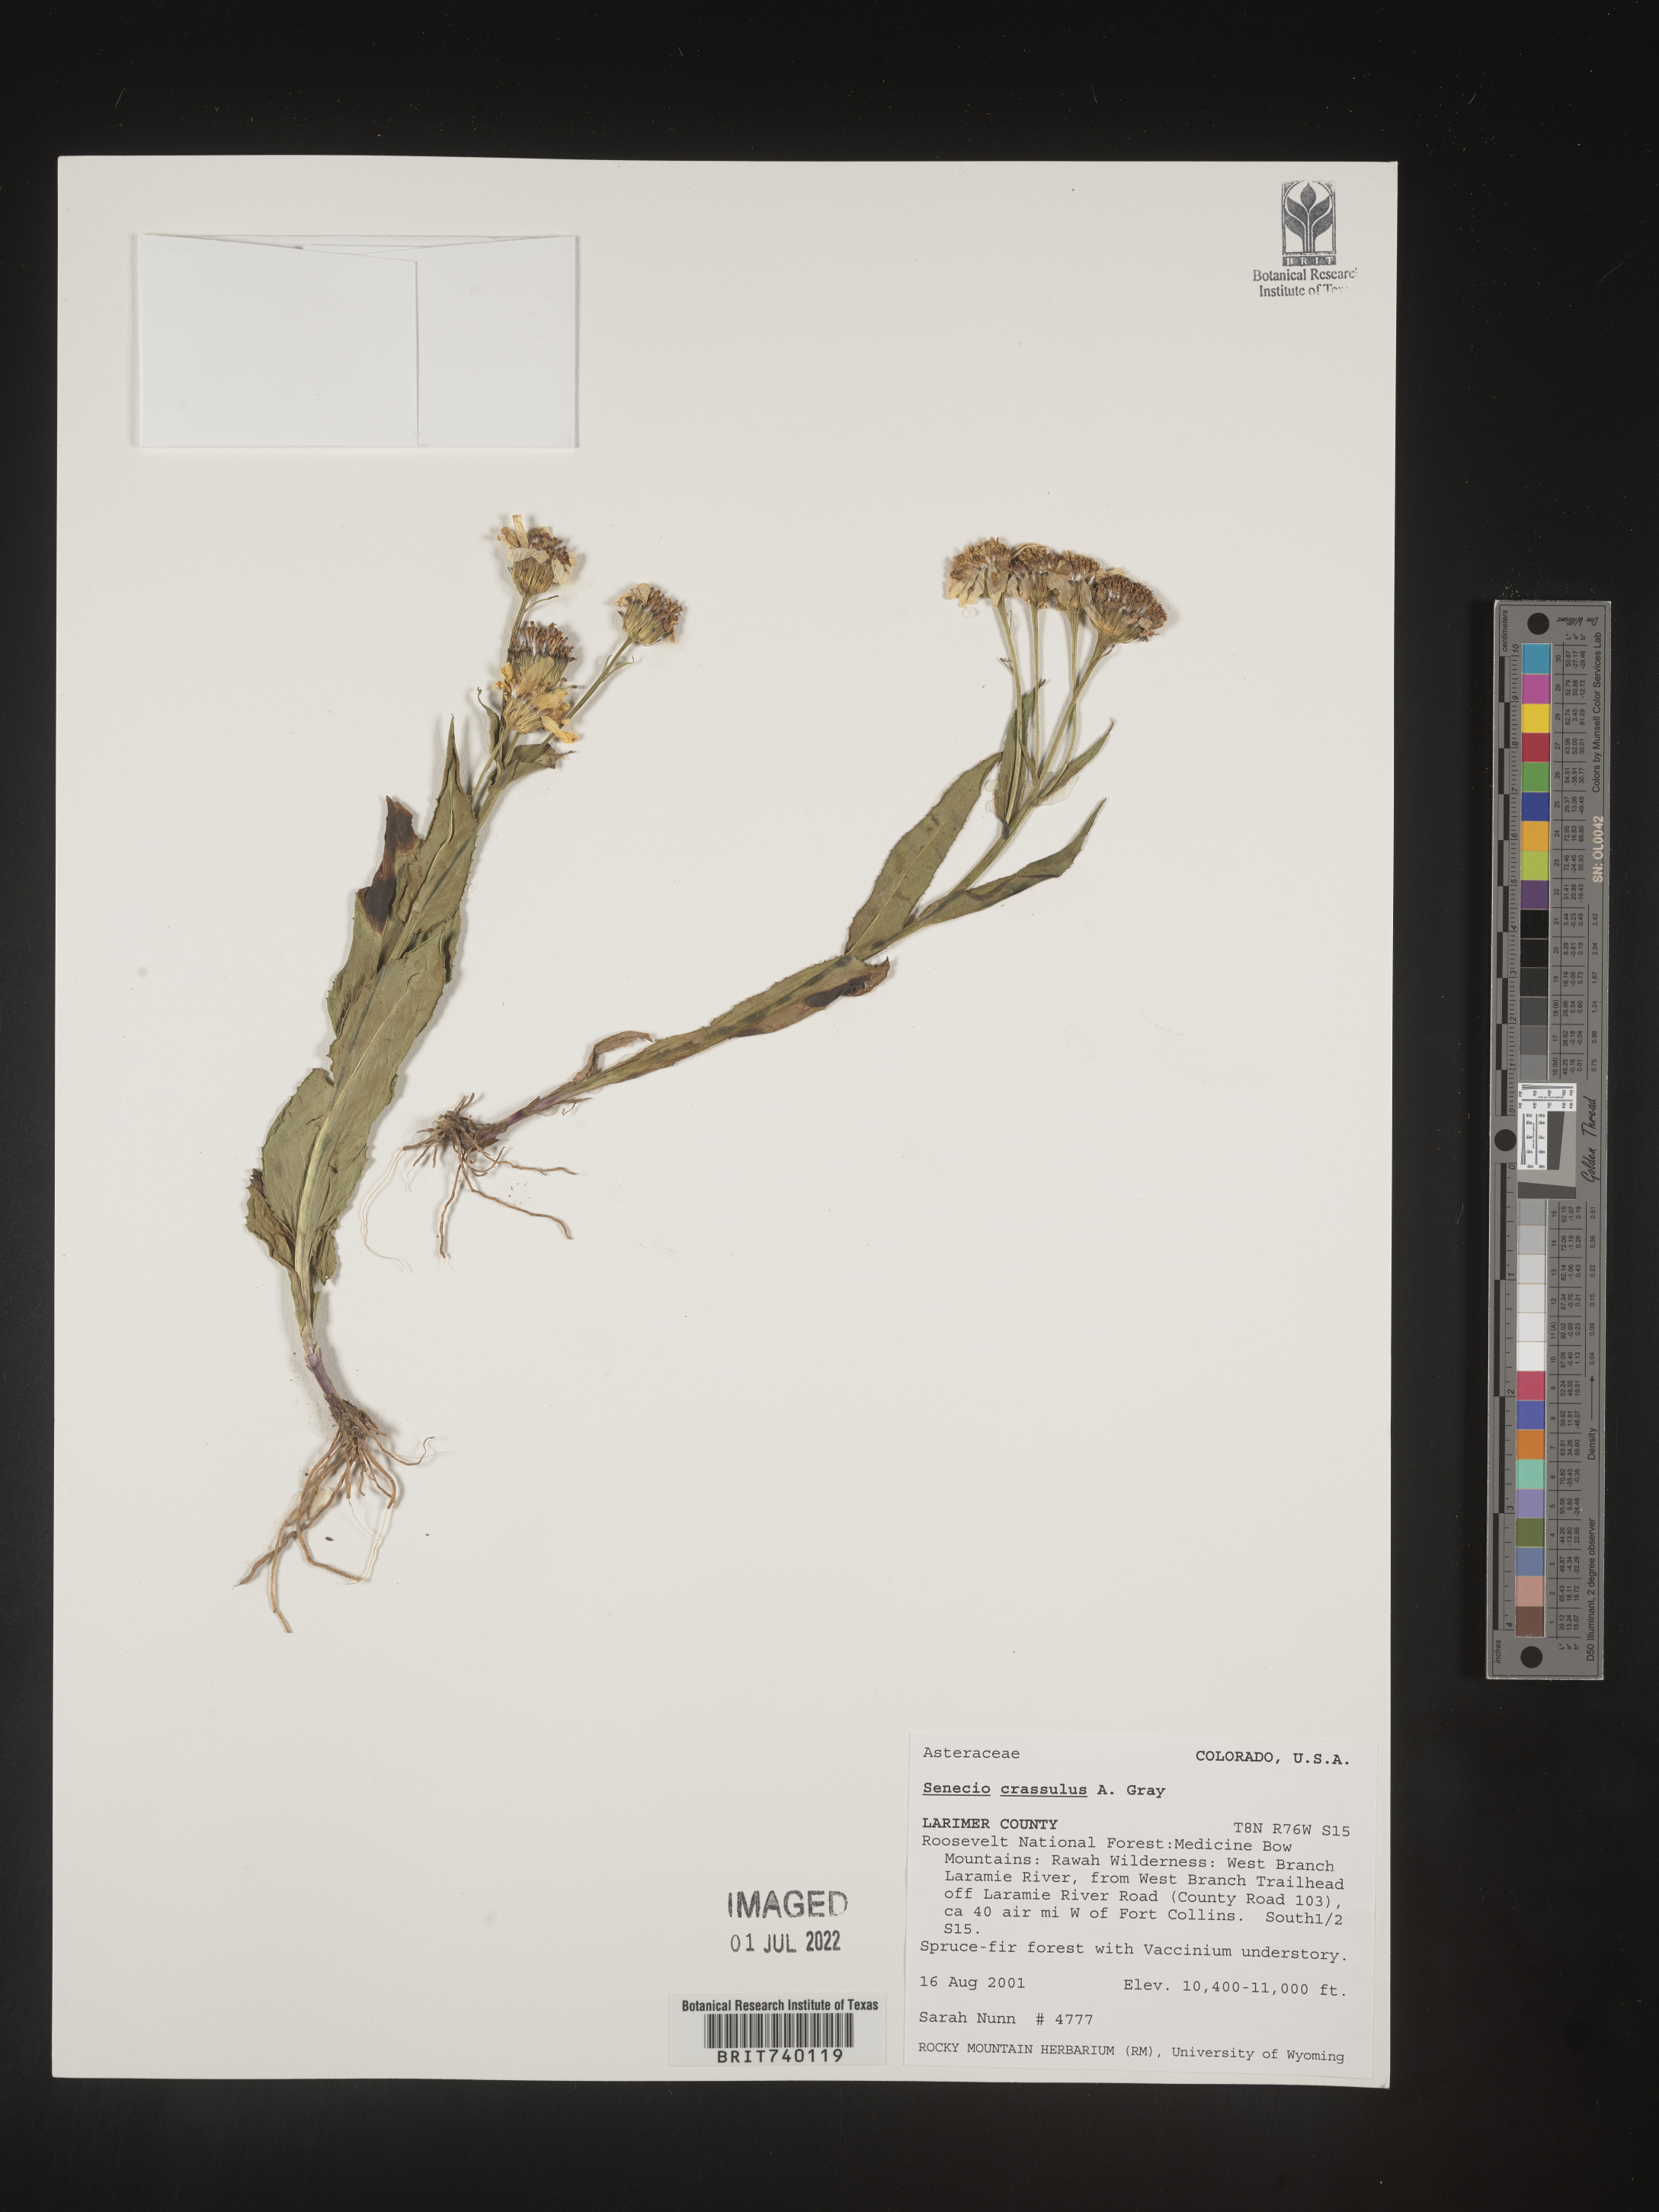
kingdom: Plantae
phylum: Tracheophyta
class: Magnoliopsida
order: Asterales
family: Asteraceae
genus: Senecio
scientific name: Senecio crassulus
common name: Mountain-meadow butterweed
